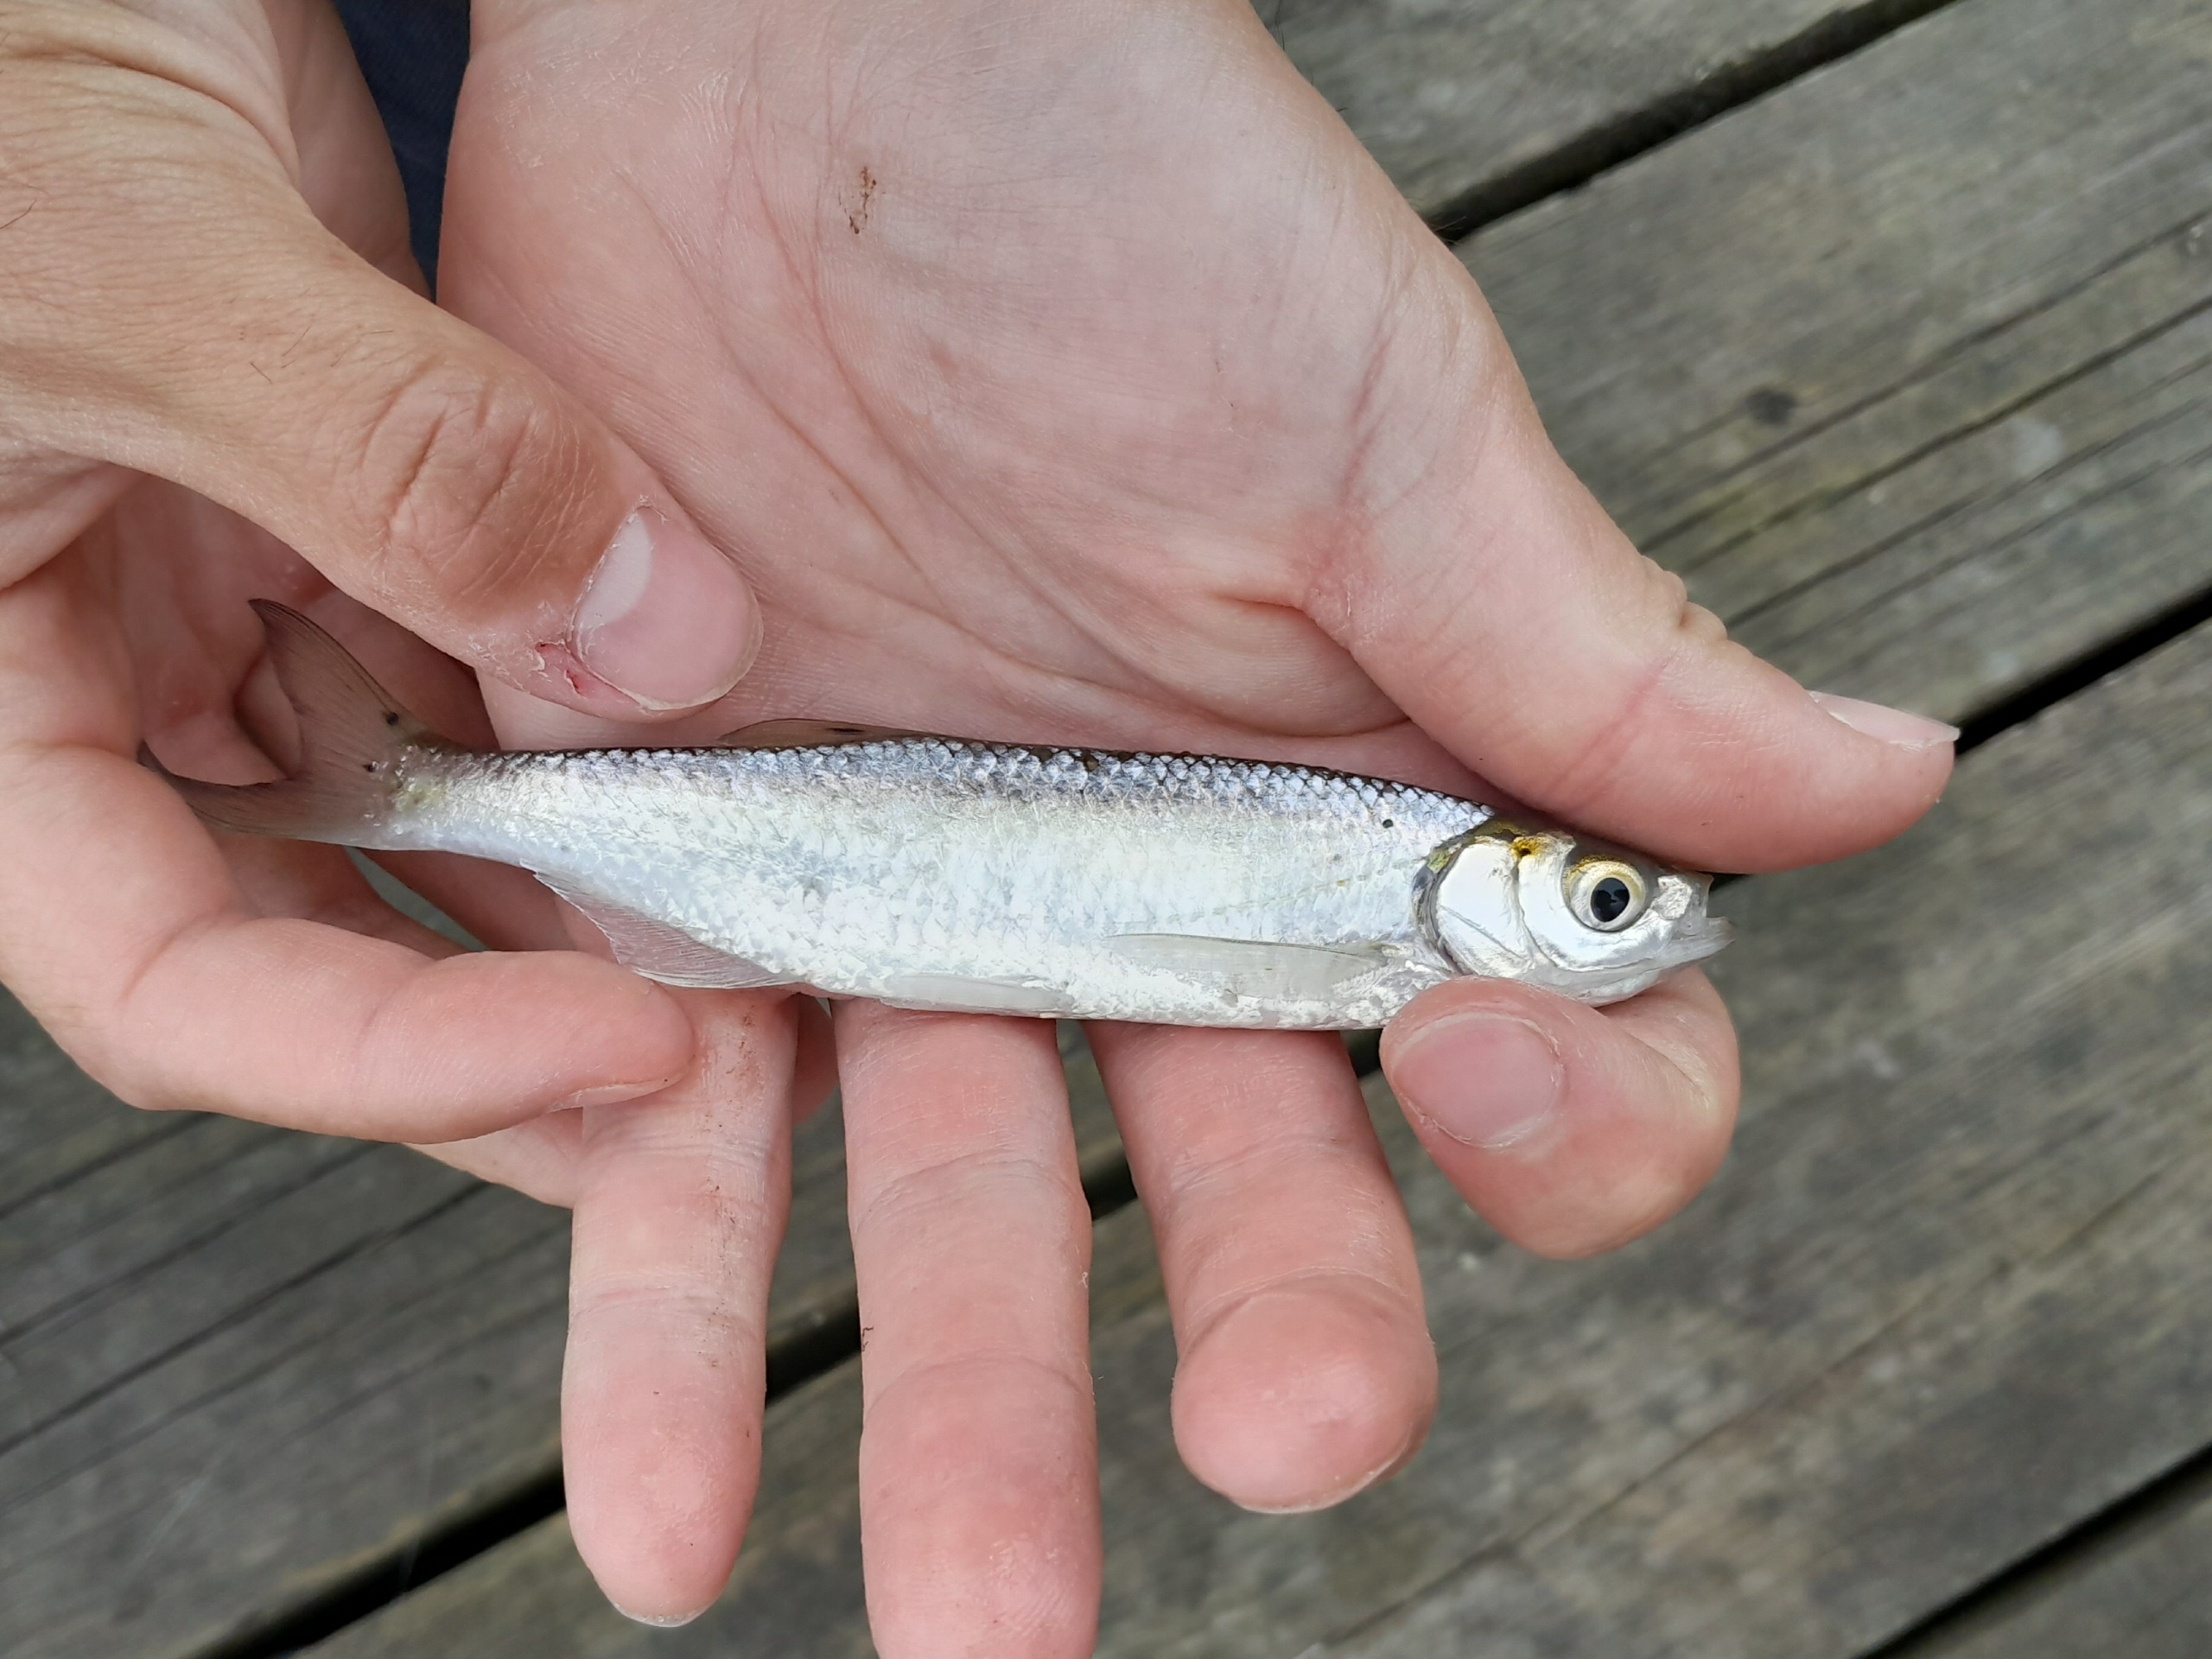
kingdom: Animalia
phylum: Chordata
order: Cypriniformes
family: Cyprinidae
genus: Alburnus
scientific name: Alburnus alburnus
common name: Løje
